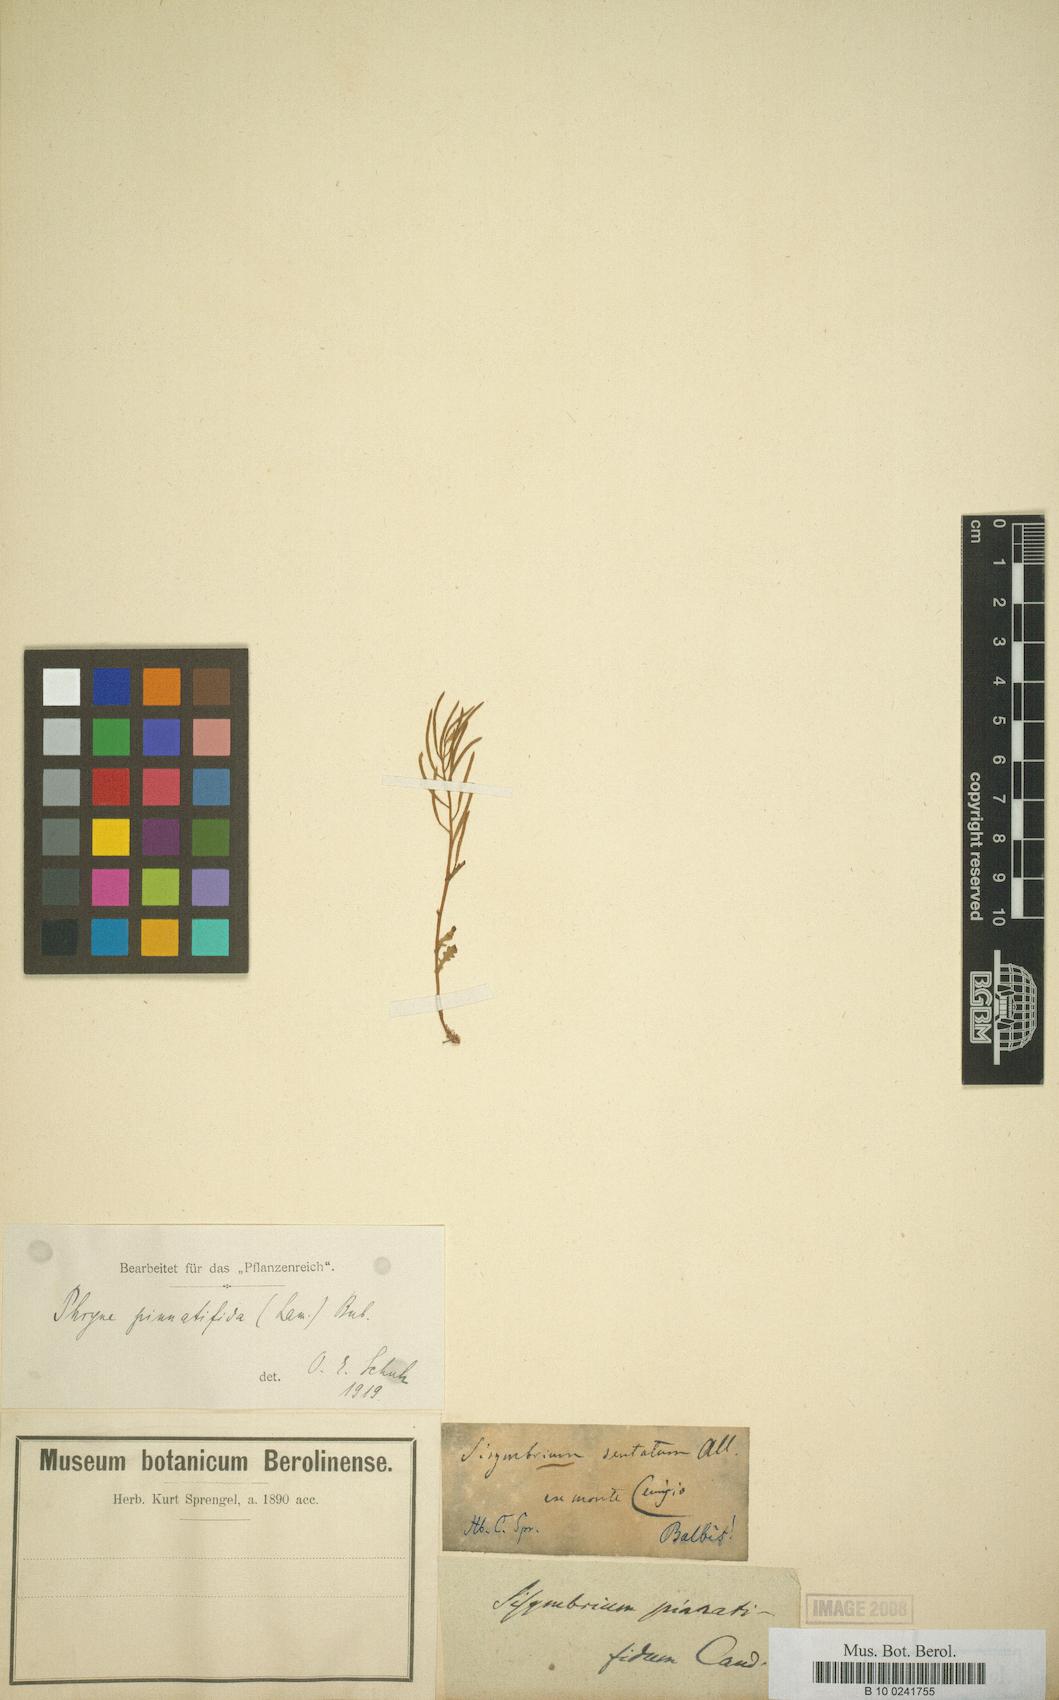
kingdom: Plantae
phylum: Tracheophyta
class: Magnoliopsida
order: Brassicales
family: Brassicaceae
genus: Murbeckiella
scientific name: Murbeckiella pinnatifida
